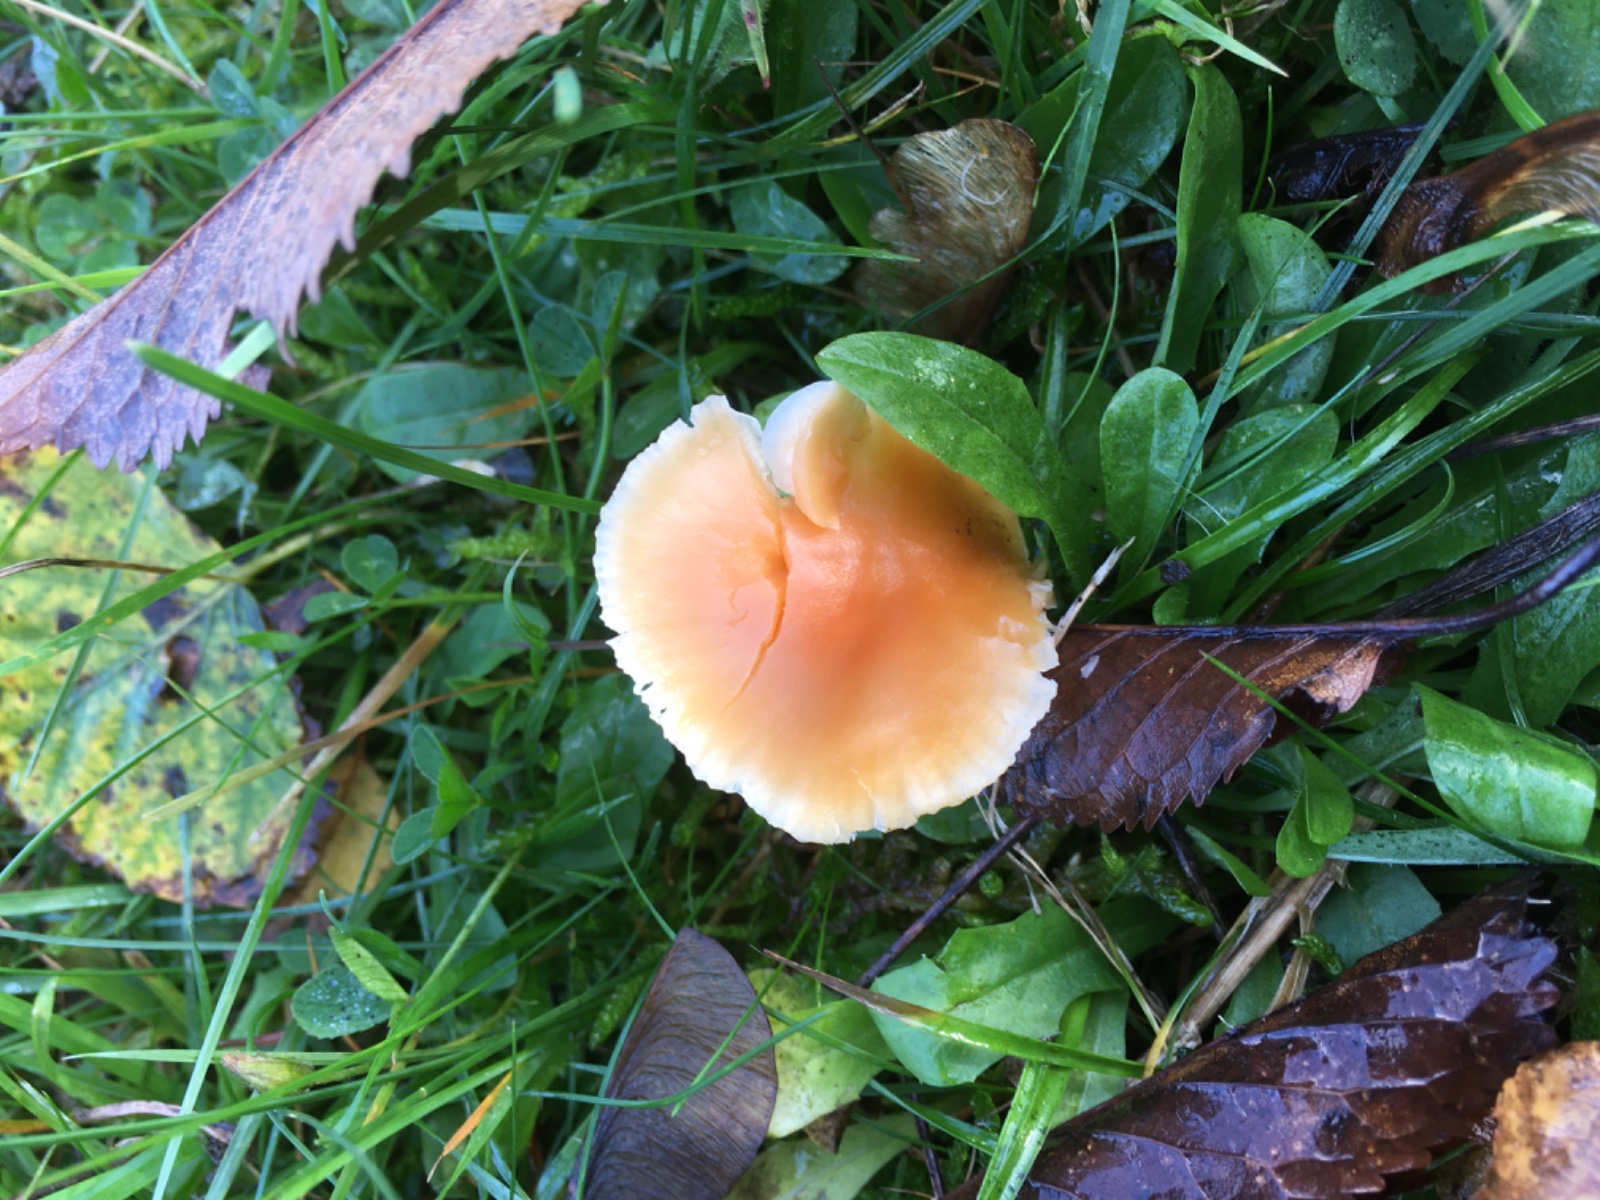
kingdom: Fungi
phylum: Basidiomycota
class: Agaricomycetes
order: Agaricales
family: Hygrophoraceae
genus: Cuphophyllus
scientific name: Cuphophyllus pratensis
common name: eng-vokshat
